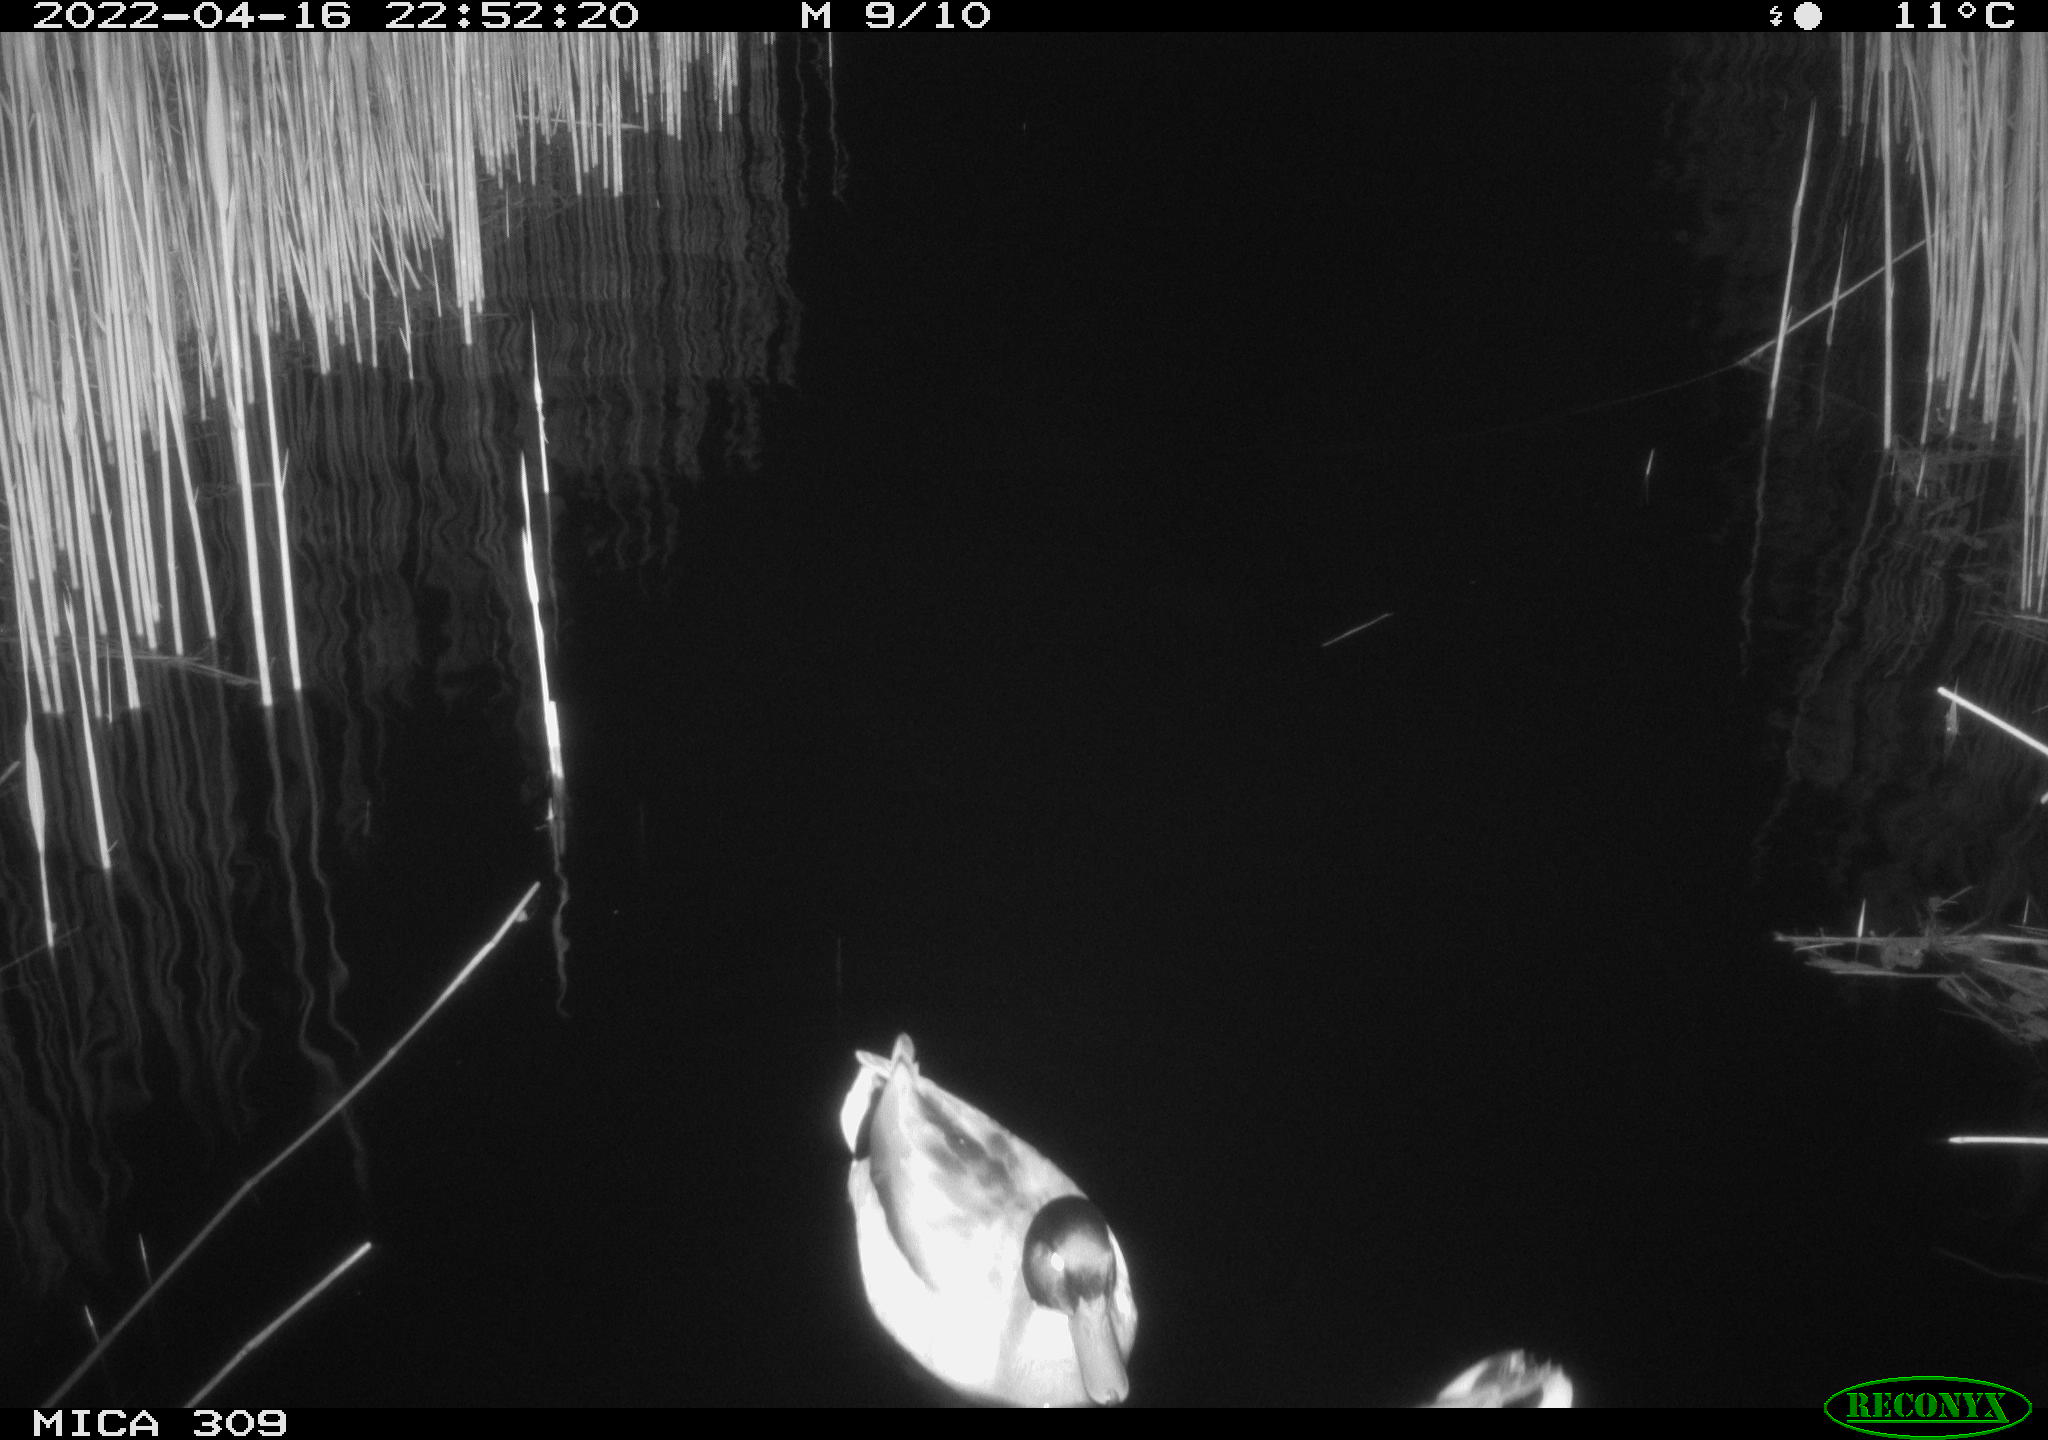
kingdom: Animalia
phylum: Chordata
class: Aves
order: Anseriformes
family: Anatidae
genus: Anas
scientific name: Anas platyrhynchos
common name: Mallard
